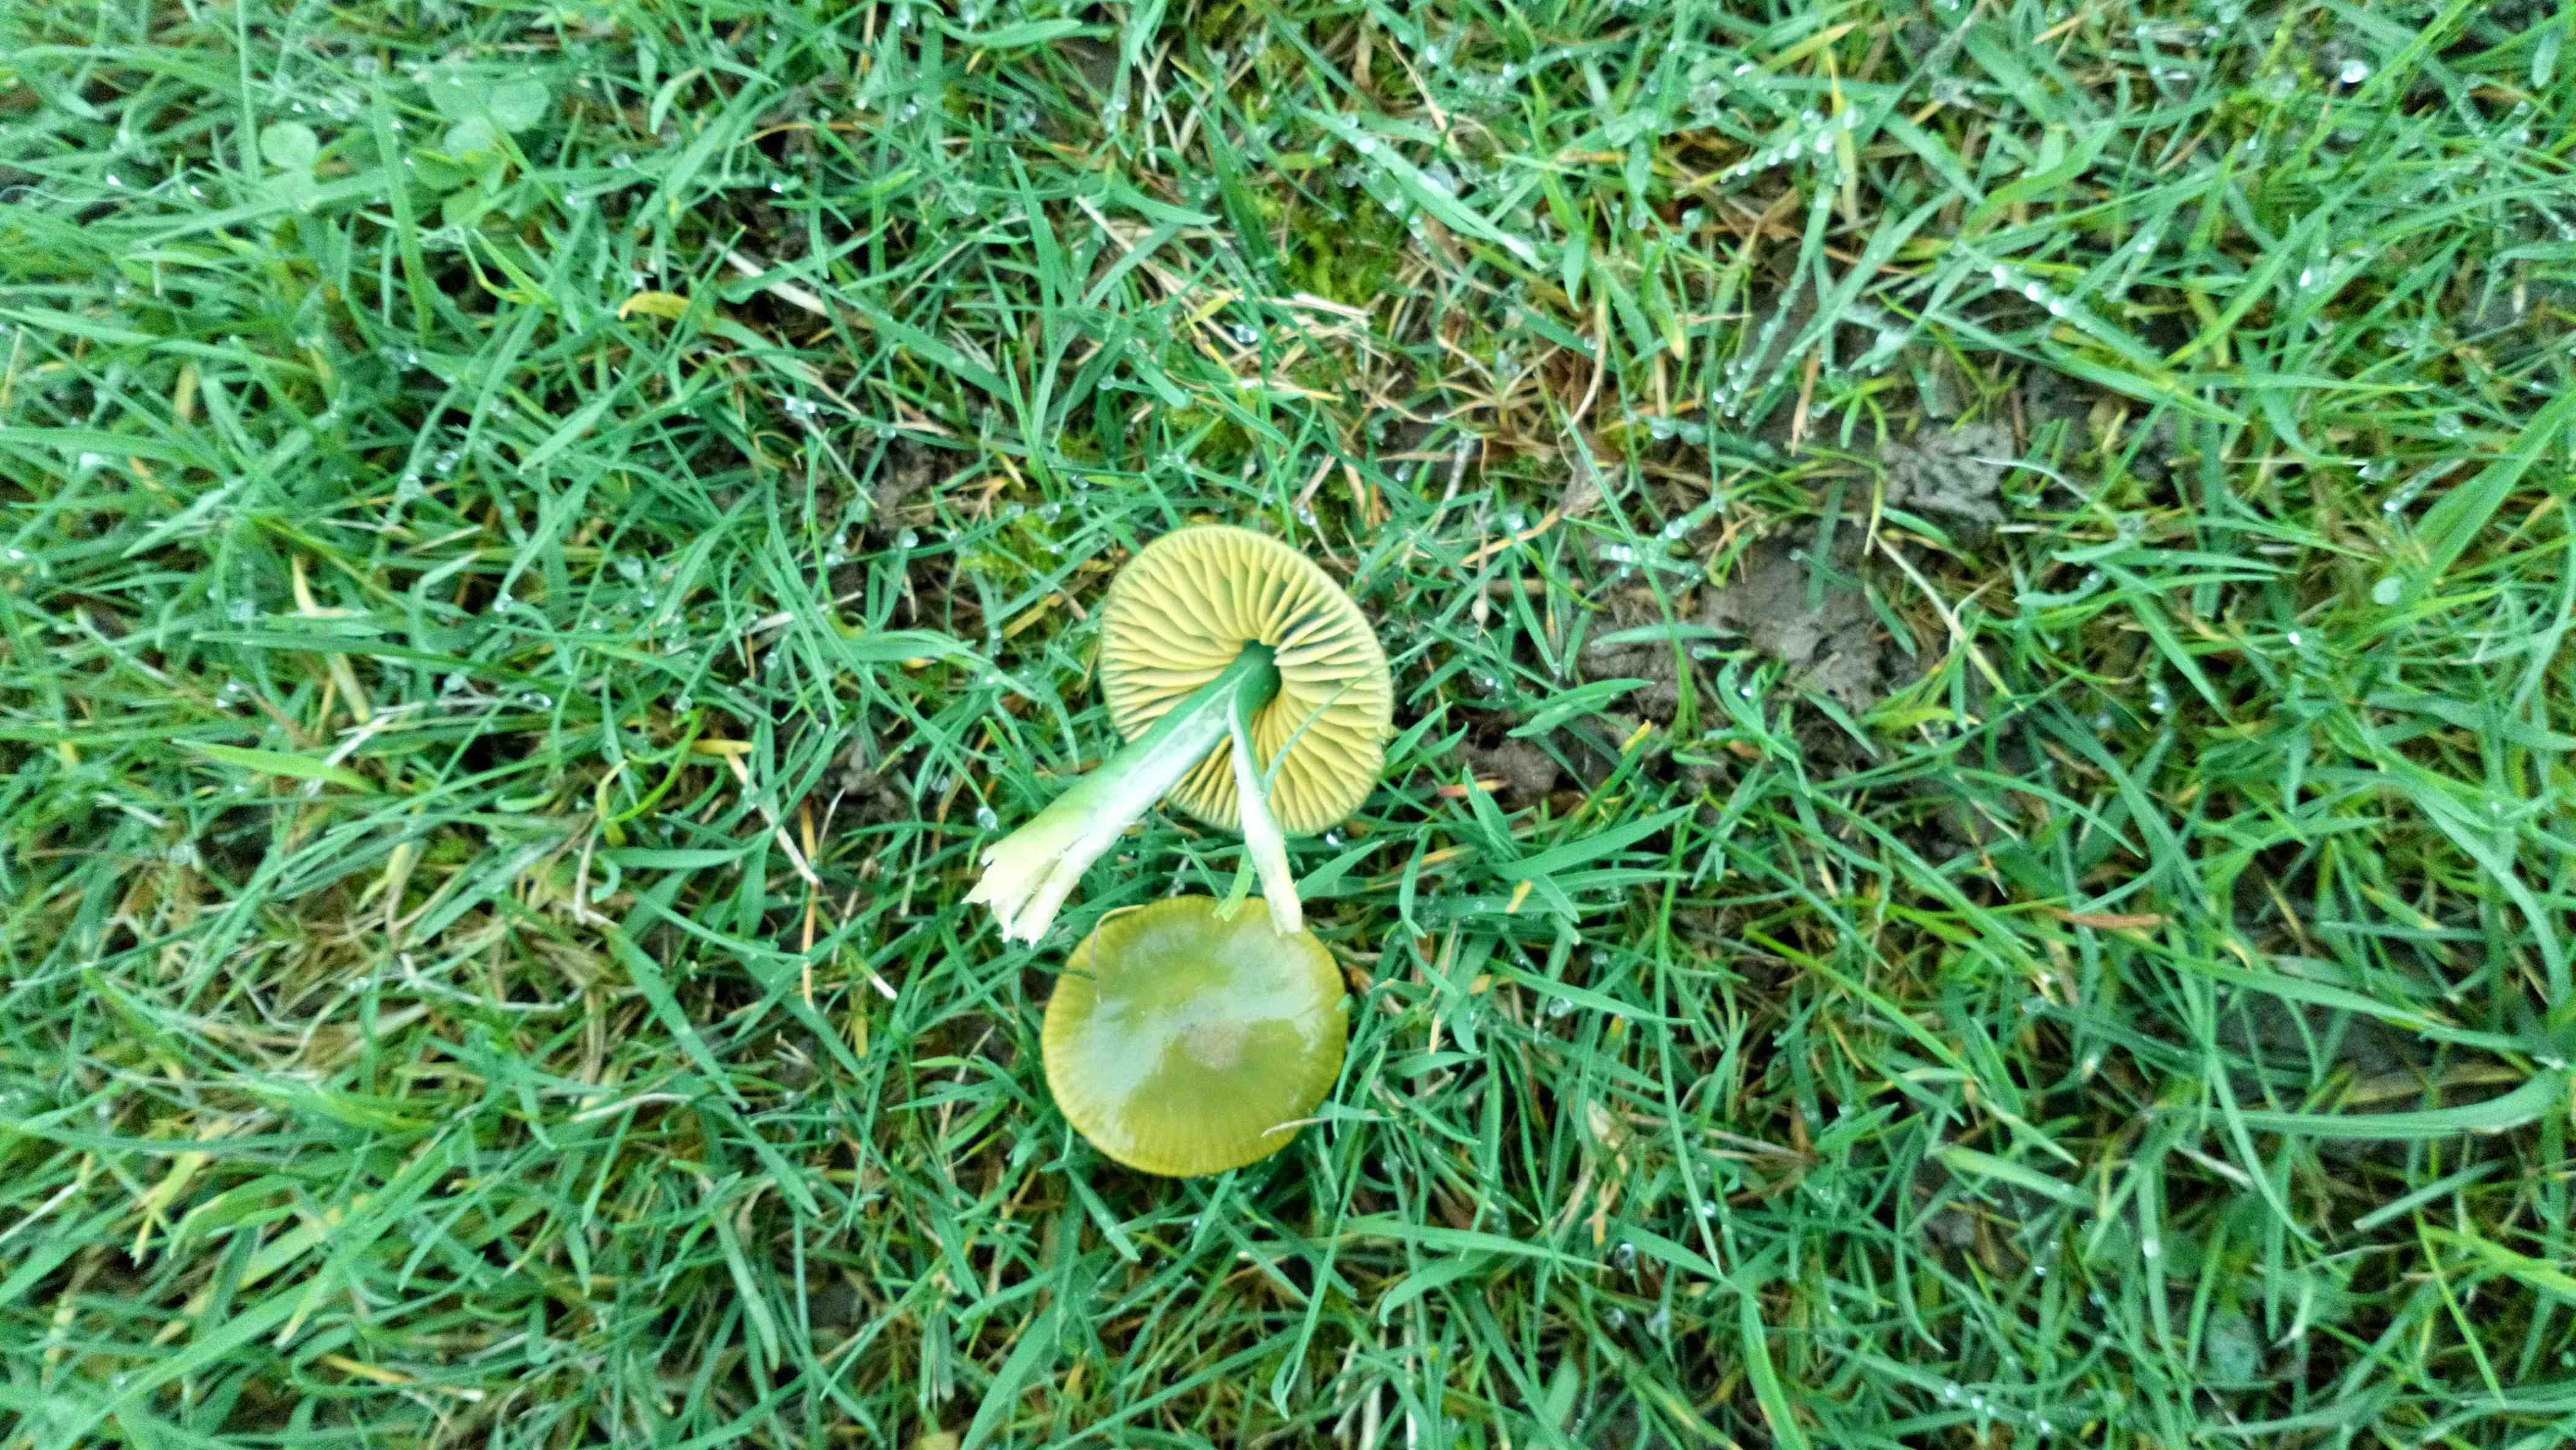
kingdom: Fungi
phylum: Basidiomycota
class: Agaricomycetes
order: Agaricales
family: Hygrophoraceae
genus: Gliophorus
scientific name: Gliophorus psittacinus
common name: papegøje-vokshat
